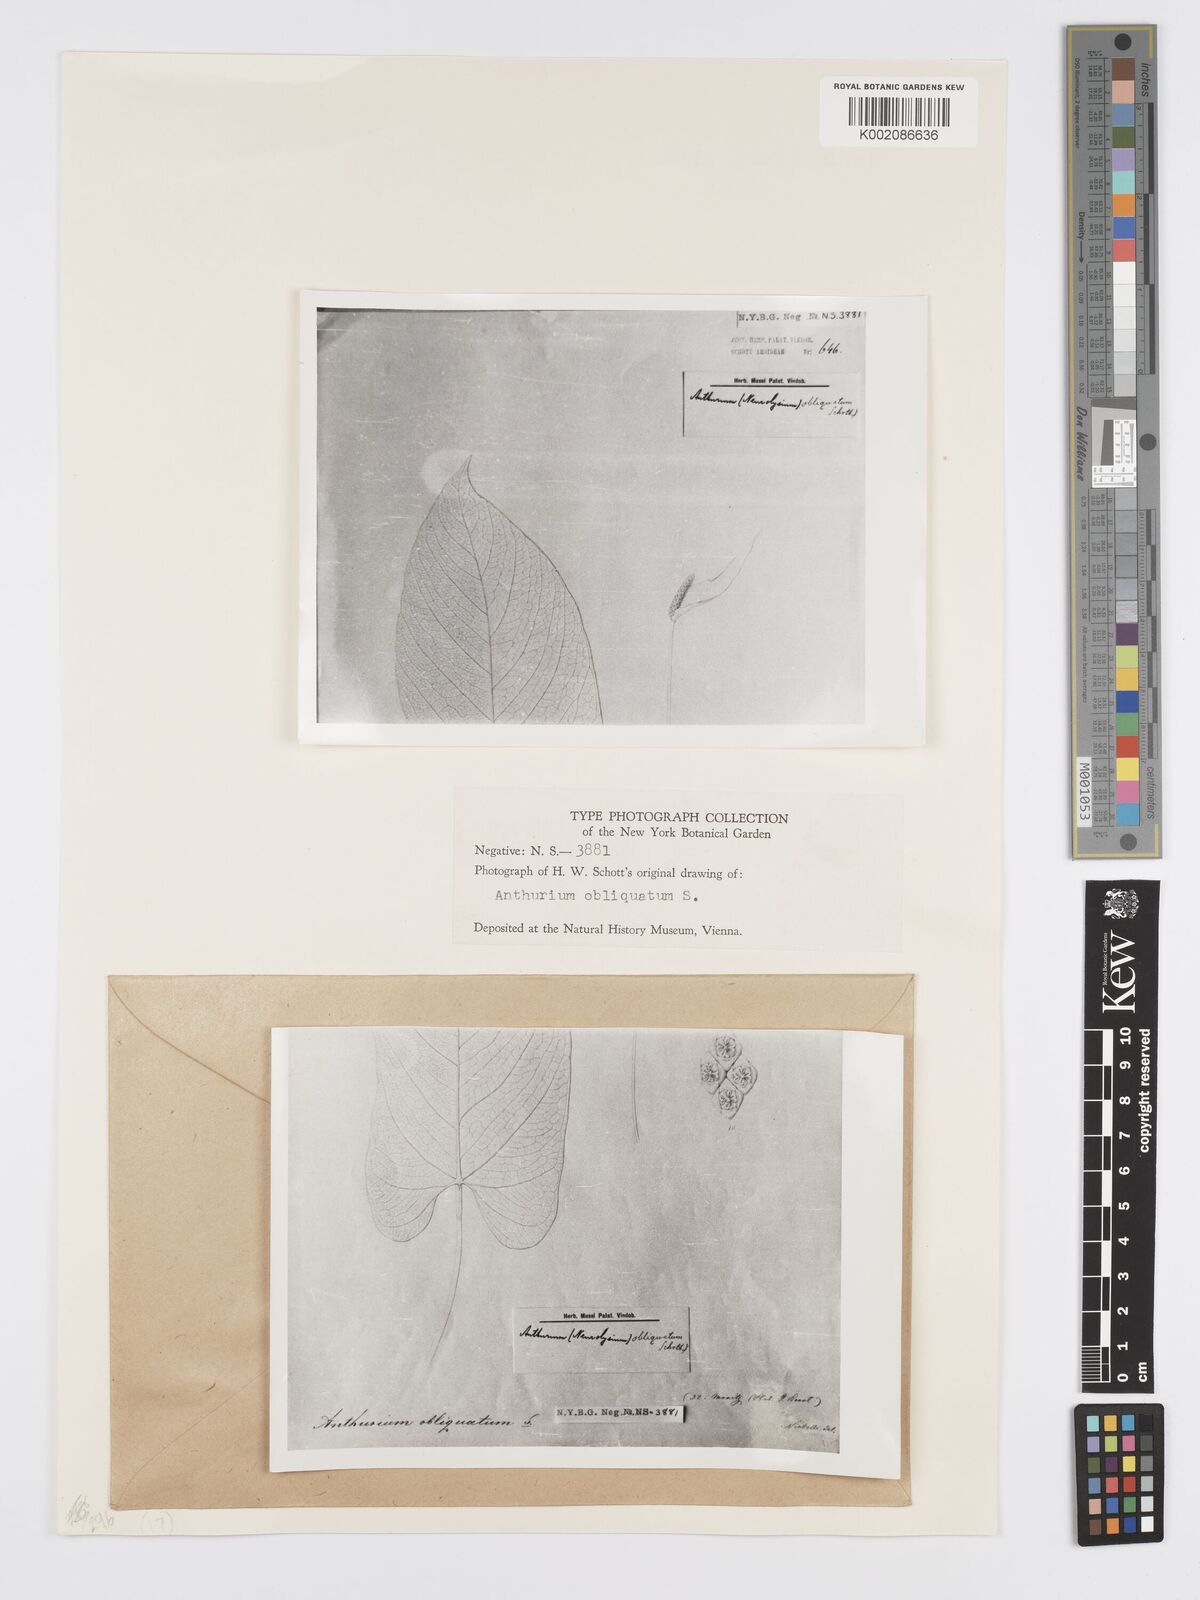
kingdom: Plantae
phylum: Tracheophyta
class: Liliopsida
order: Alismatales
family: Araceae
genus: Anthurium
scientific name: Anthurium obliquatum
